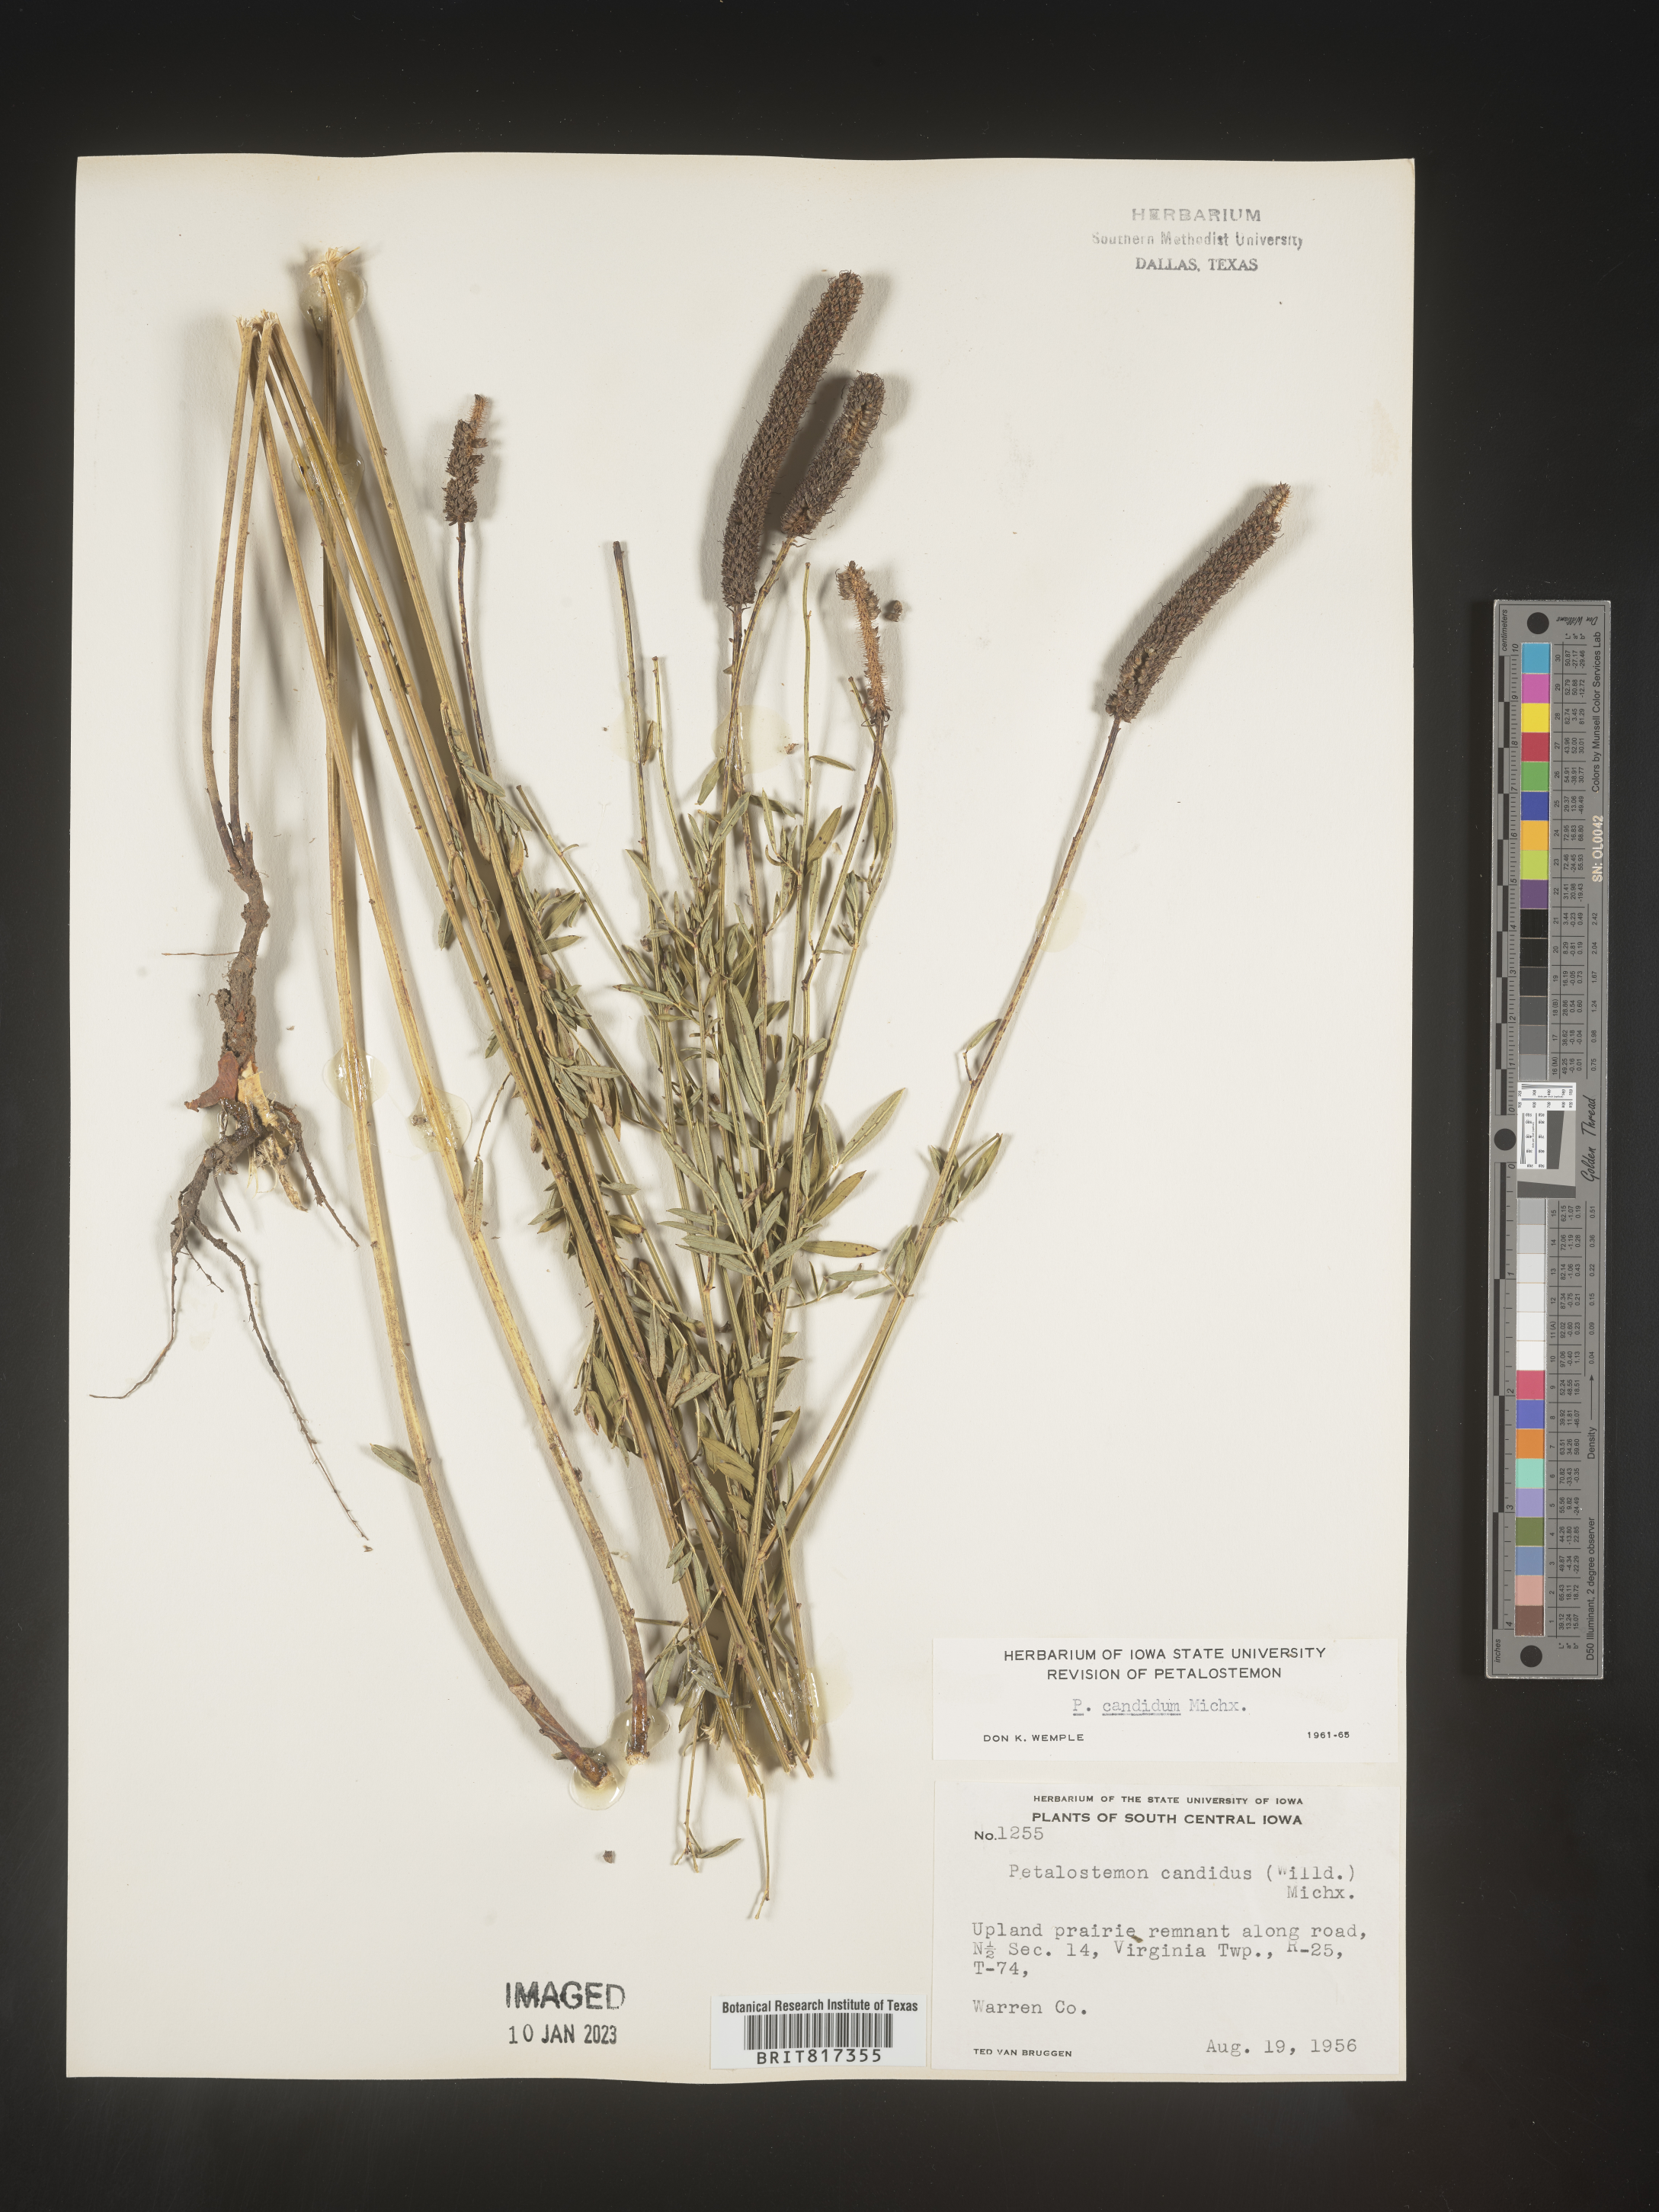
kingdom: Plantae
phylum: Tracheophyta
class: Magnoliopsida
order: Fabales
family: Fabaceae
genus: Dalea
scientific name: Dalea candida
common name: White prairie-clover
